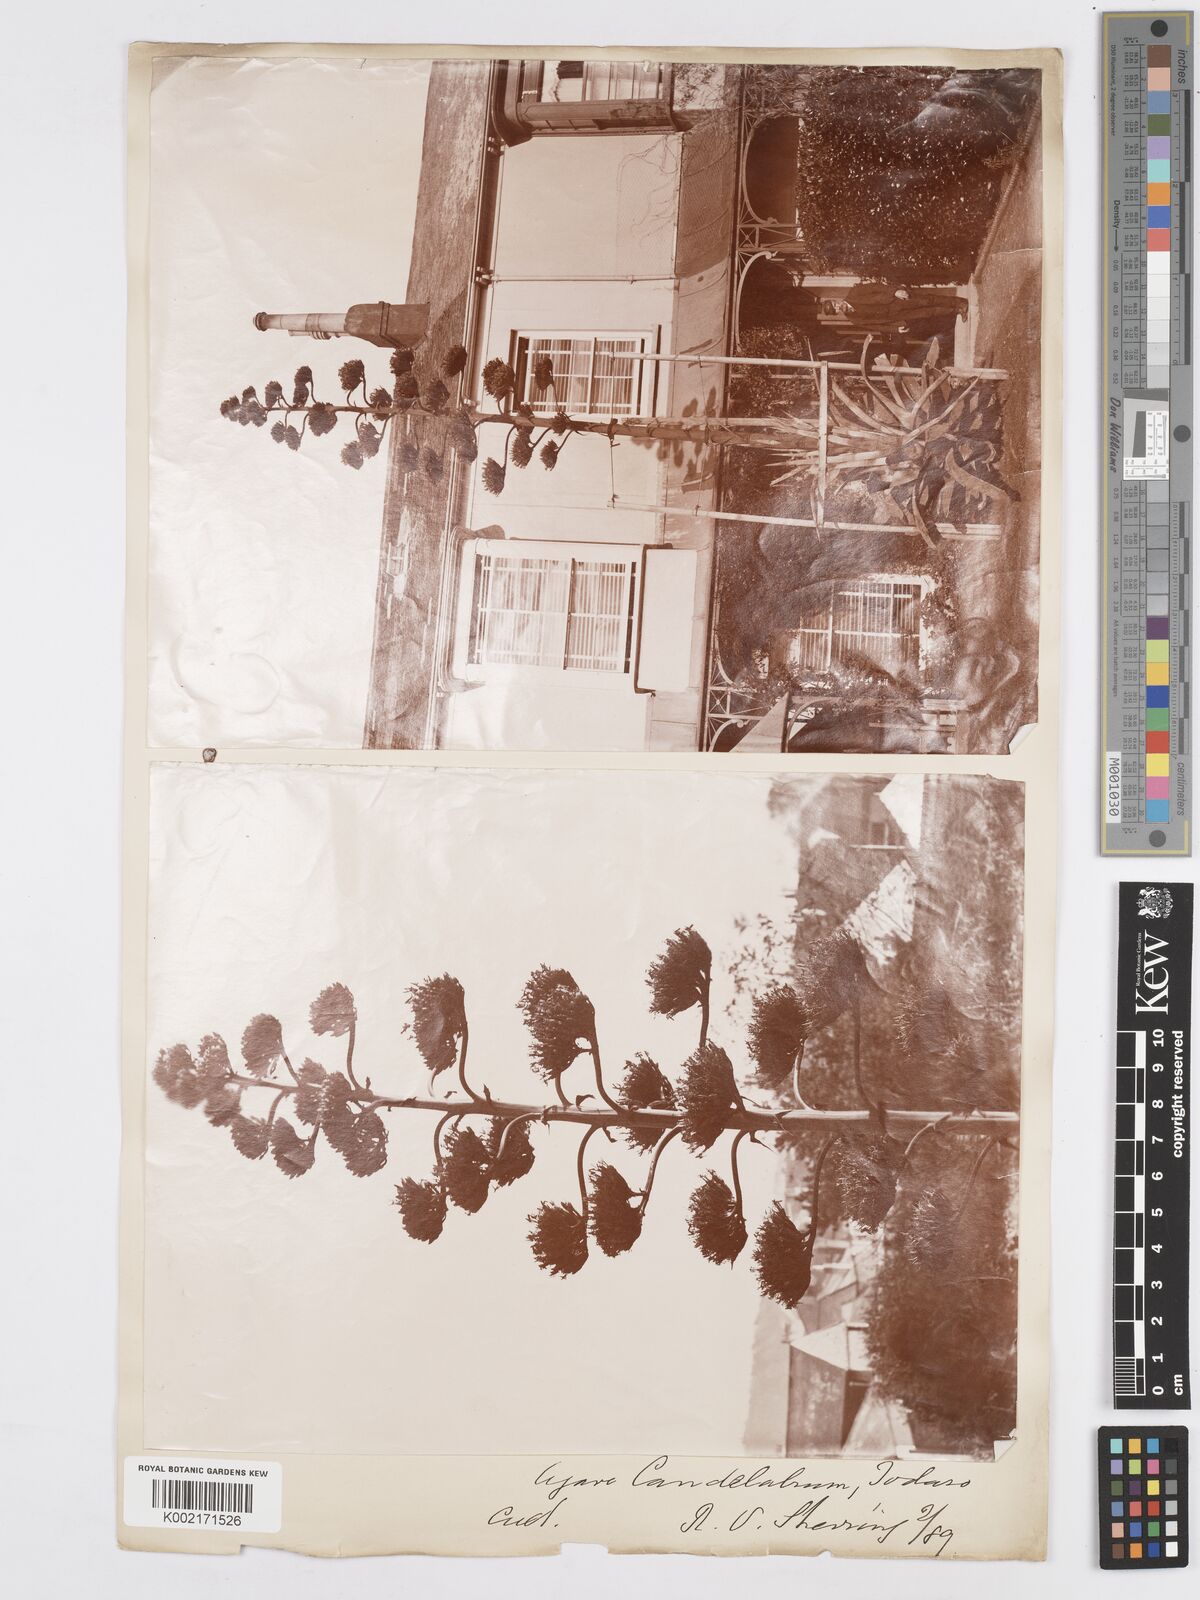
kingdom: Plantae
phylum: Tracheophyta
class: Liliopsida
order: Asparagales
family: Asparagaceae
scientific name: Asparagaceae
